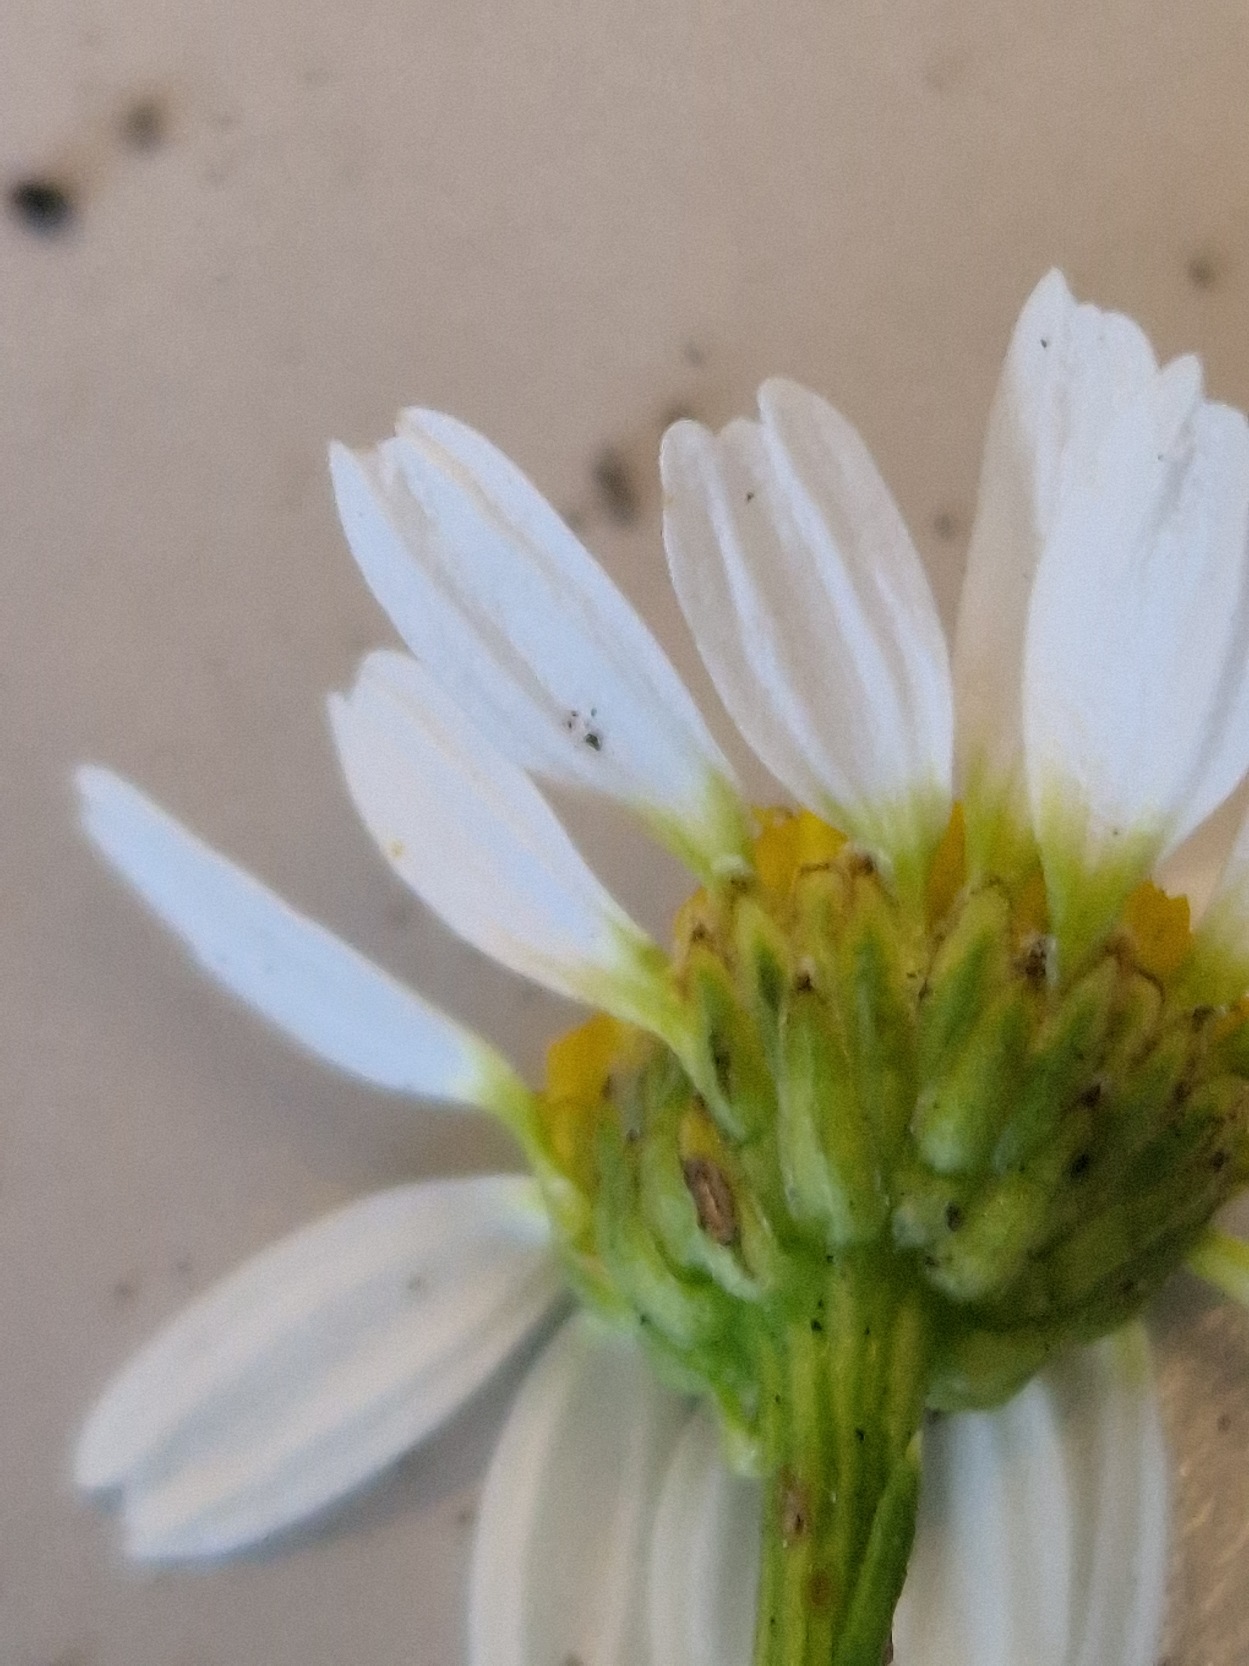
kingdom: Plantae
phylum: Tracheophyta
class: Magnoliopsida
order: Asterales
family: Asteraceae
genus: Leucanthemum
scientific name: Leucanthemum vulgare
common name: Hvid okseøje
